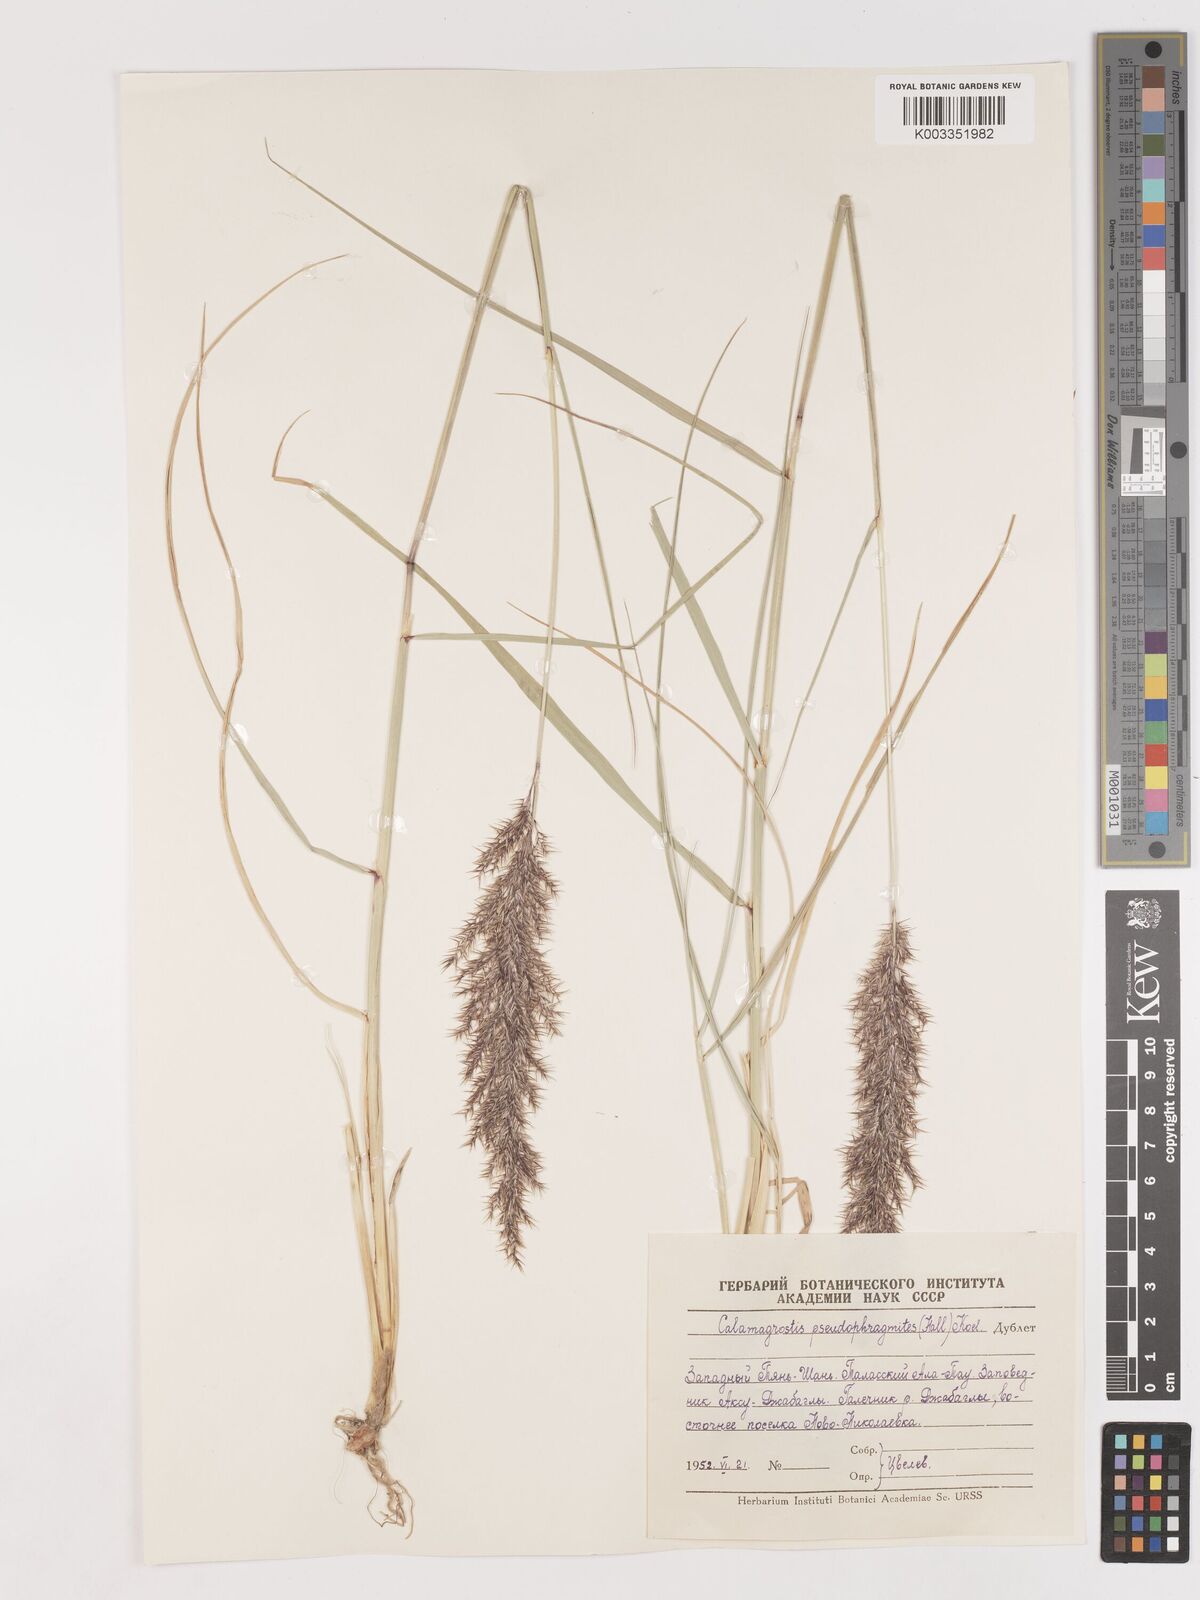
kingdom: Plantae
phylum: Tracheophyta
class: Liliopsida
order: Poales
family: Poaceae
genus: Calamagrostis
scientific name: Calamagrostis pseudophragmites
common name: Coastal small-reed
